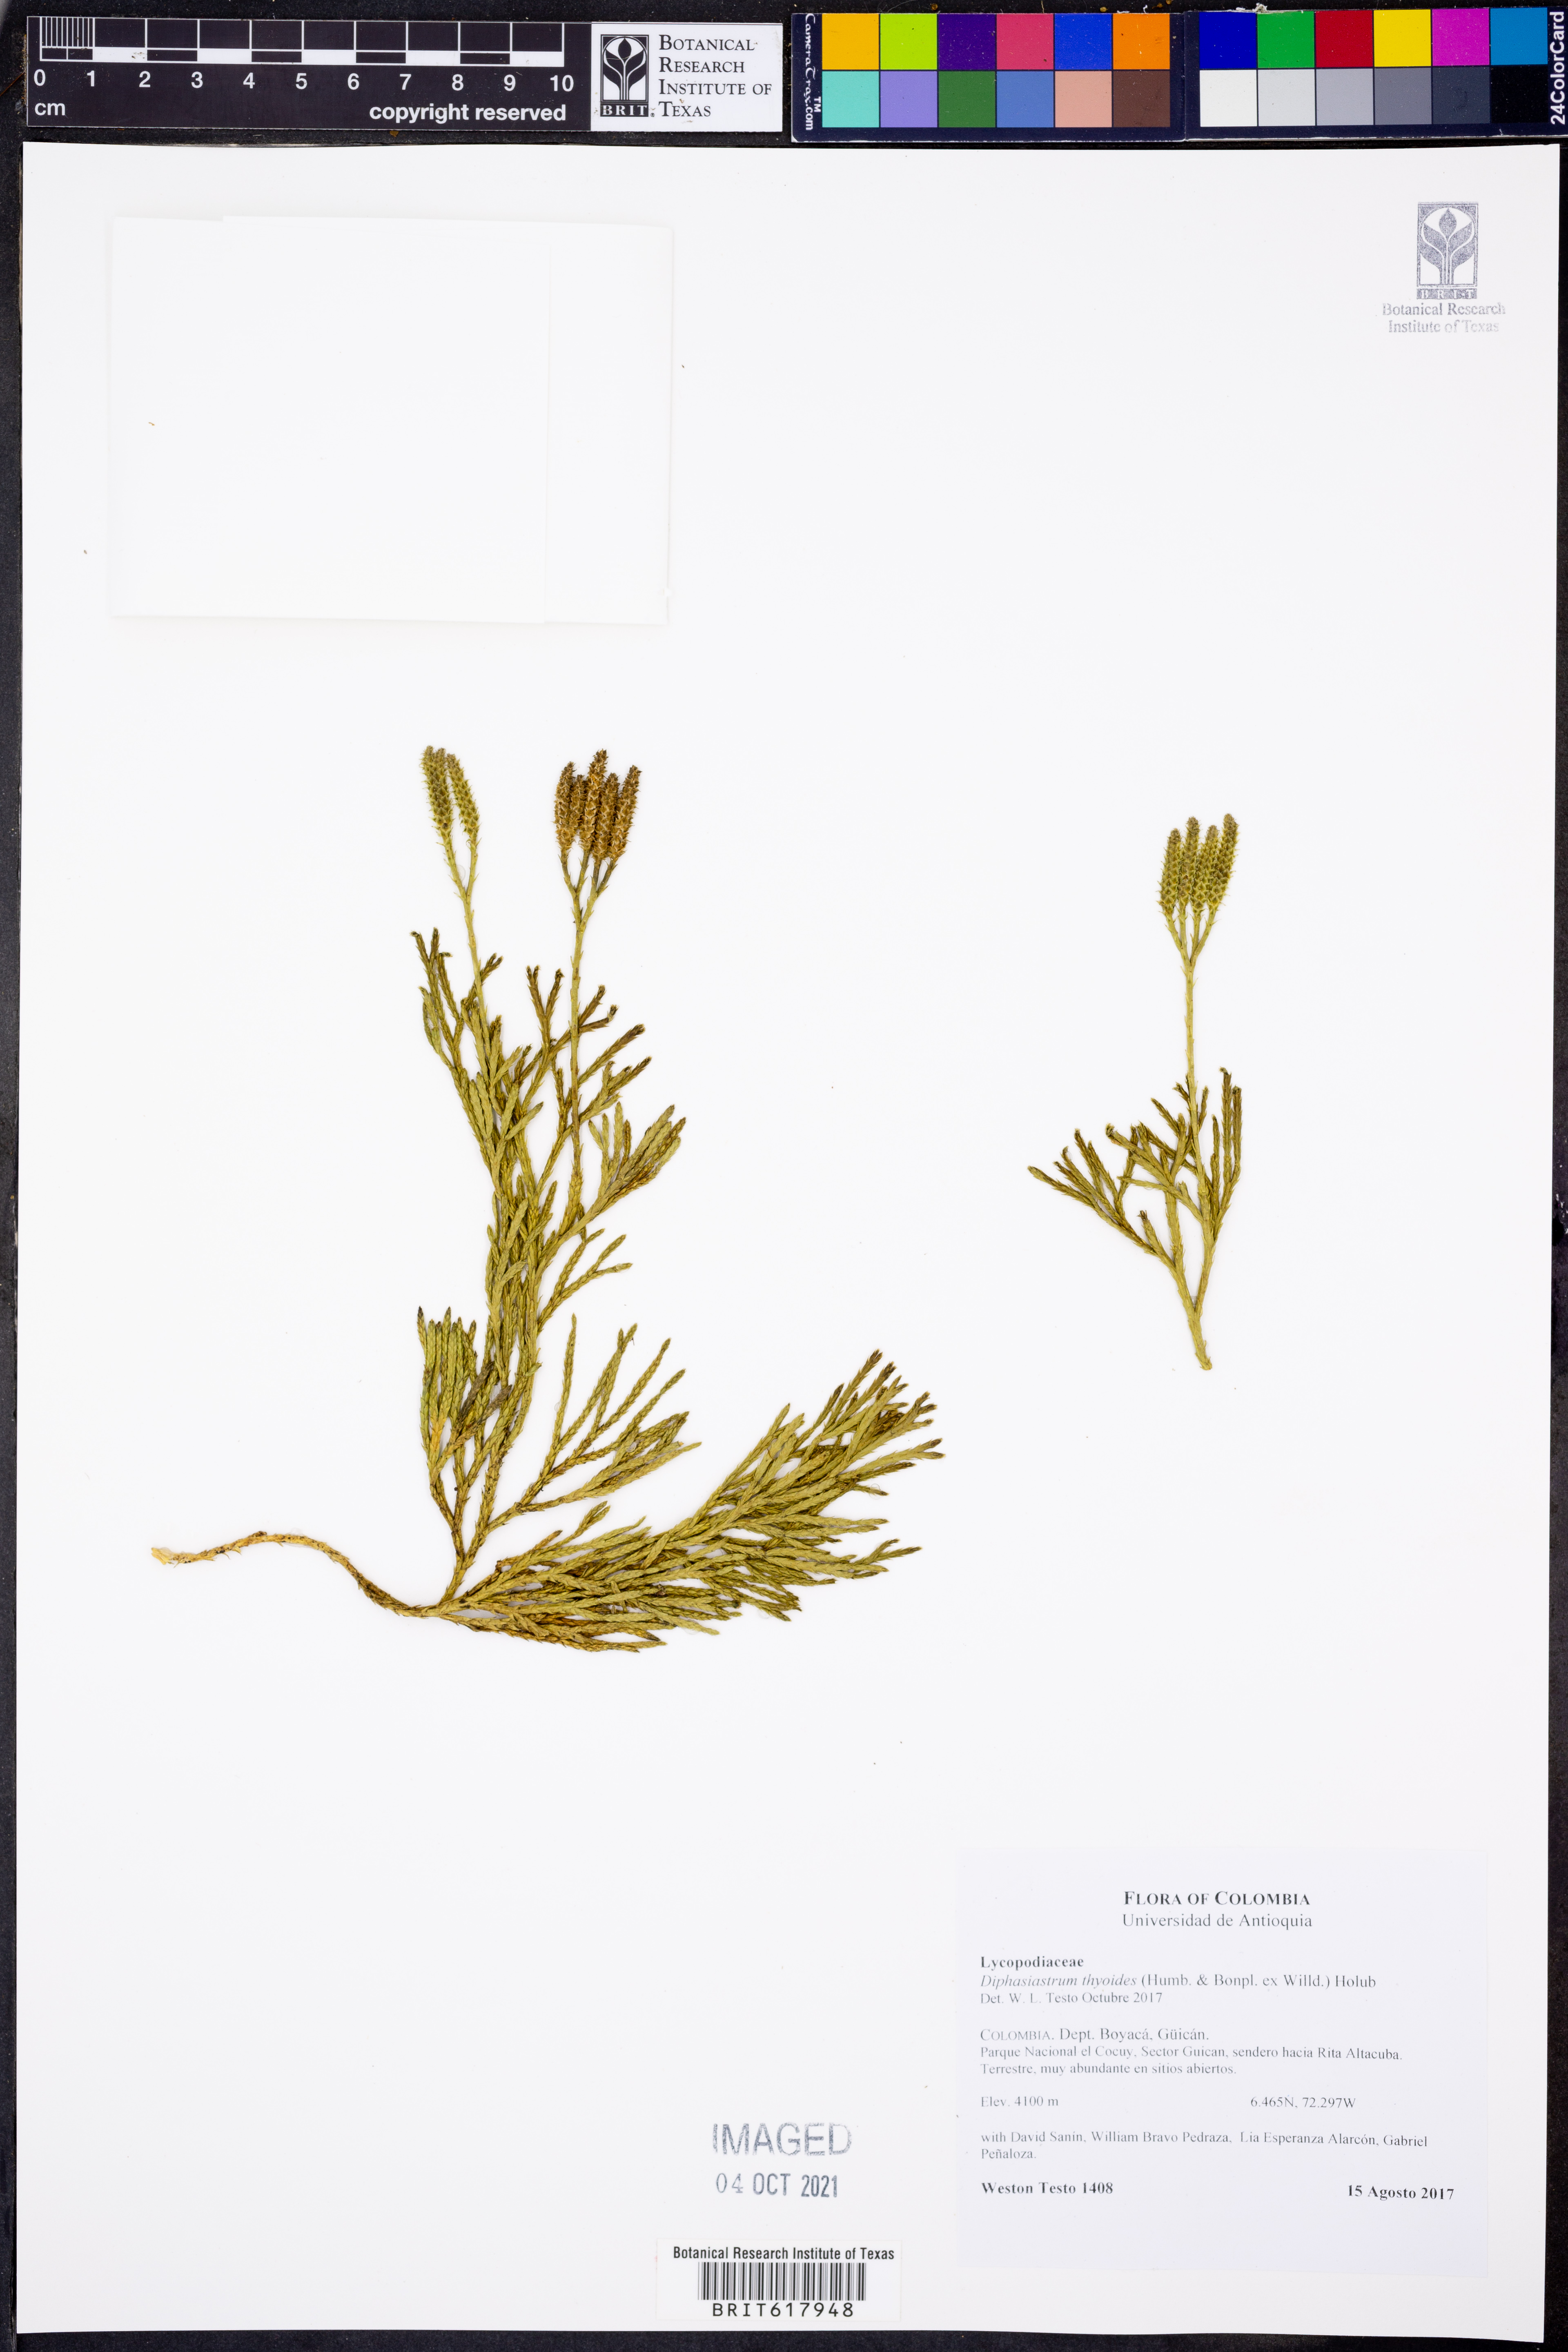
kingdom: Plantae
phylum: Tracheophyta
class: Lycopodiopsida
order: Lycopodiales
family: Lycopodiaceae
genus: Diphasiastrum
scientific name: Diphasiastrum thyoides
